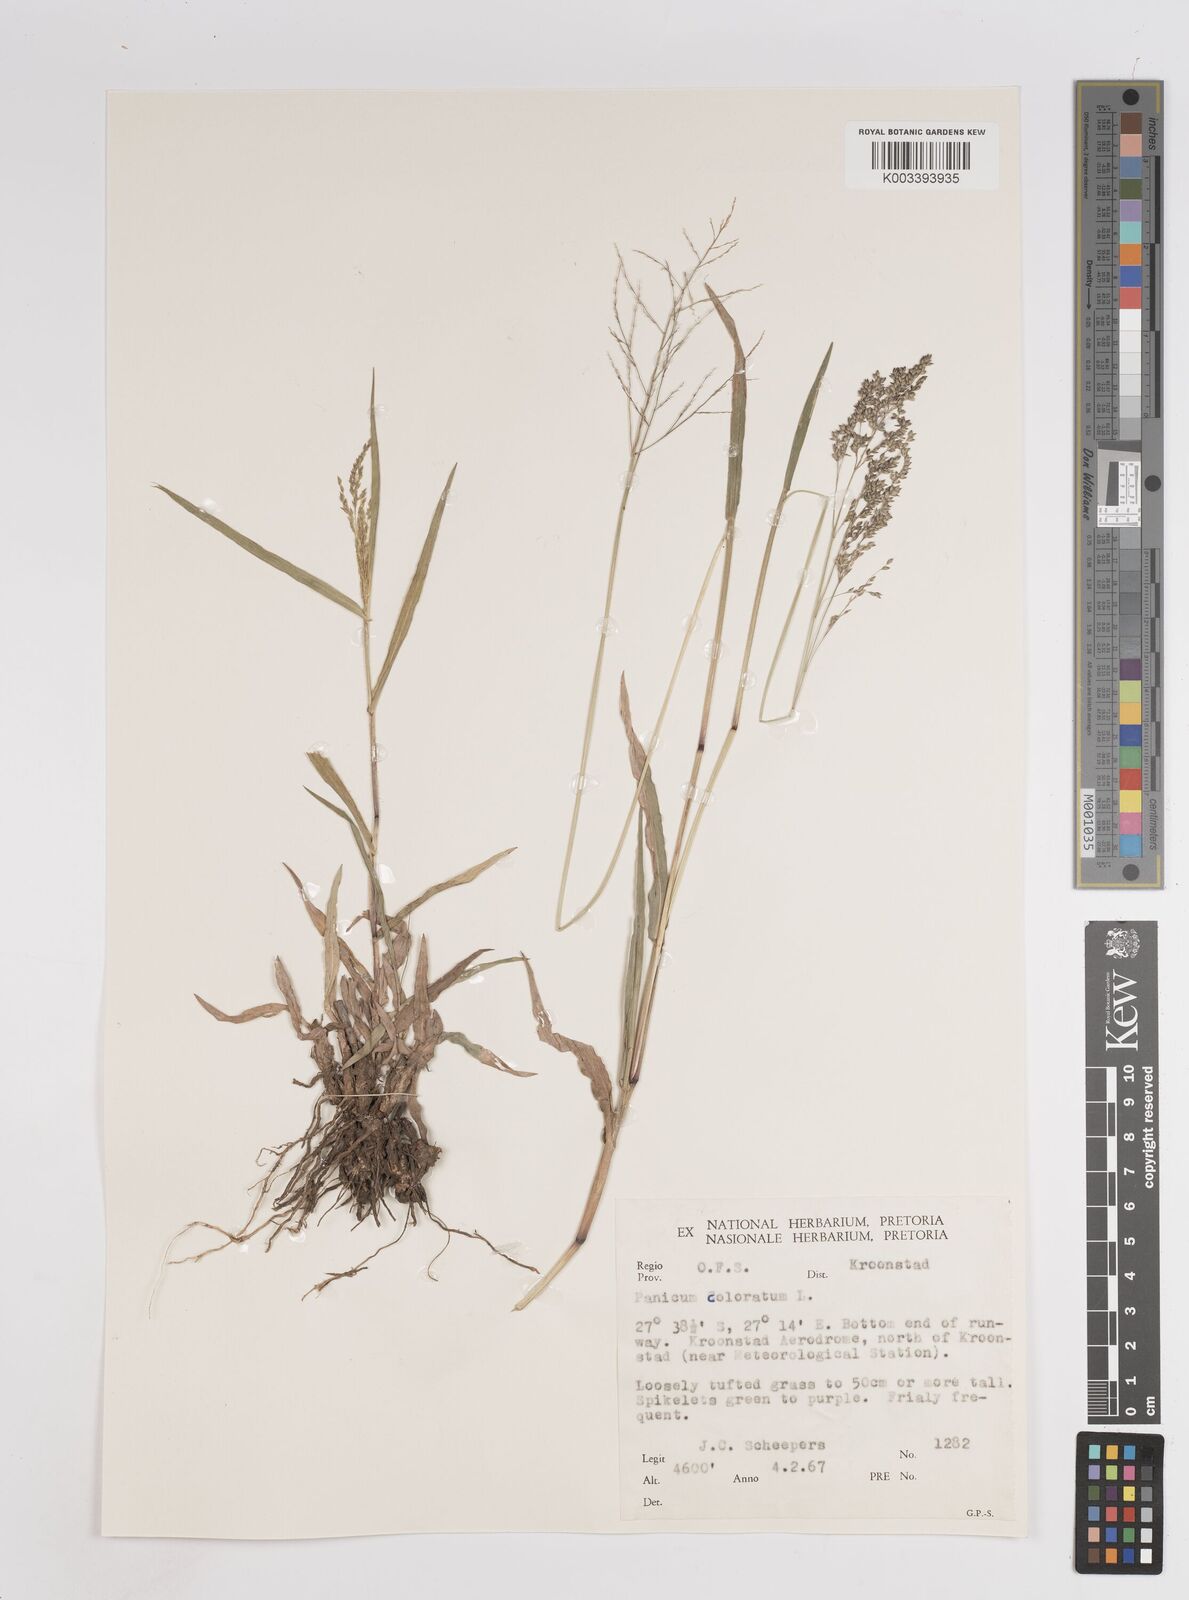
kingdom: Plantae
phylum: Tracheophyta
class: Liliopsida
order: Poales
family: Poaceae
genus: Panicum
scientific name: Panicum coloratum
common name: Kleingrass
